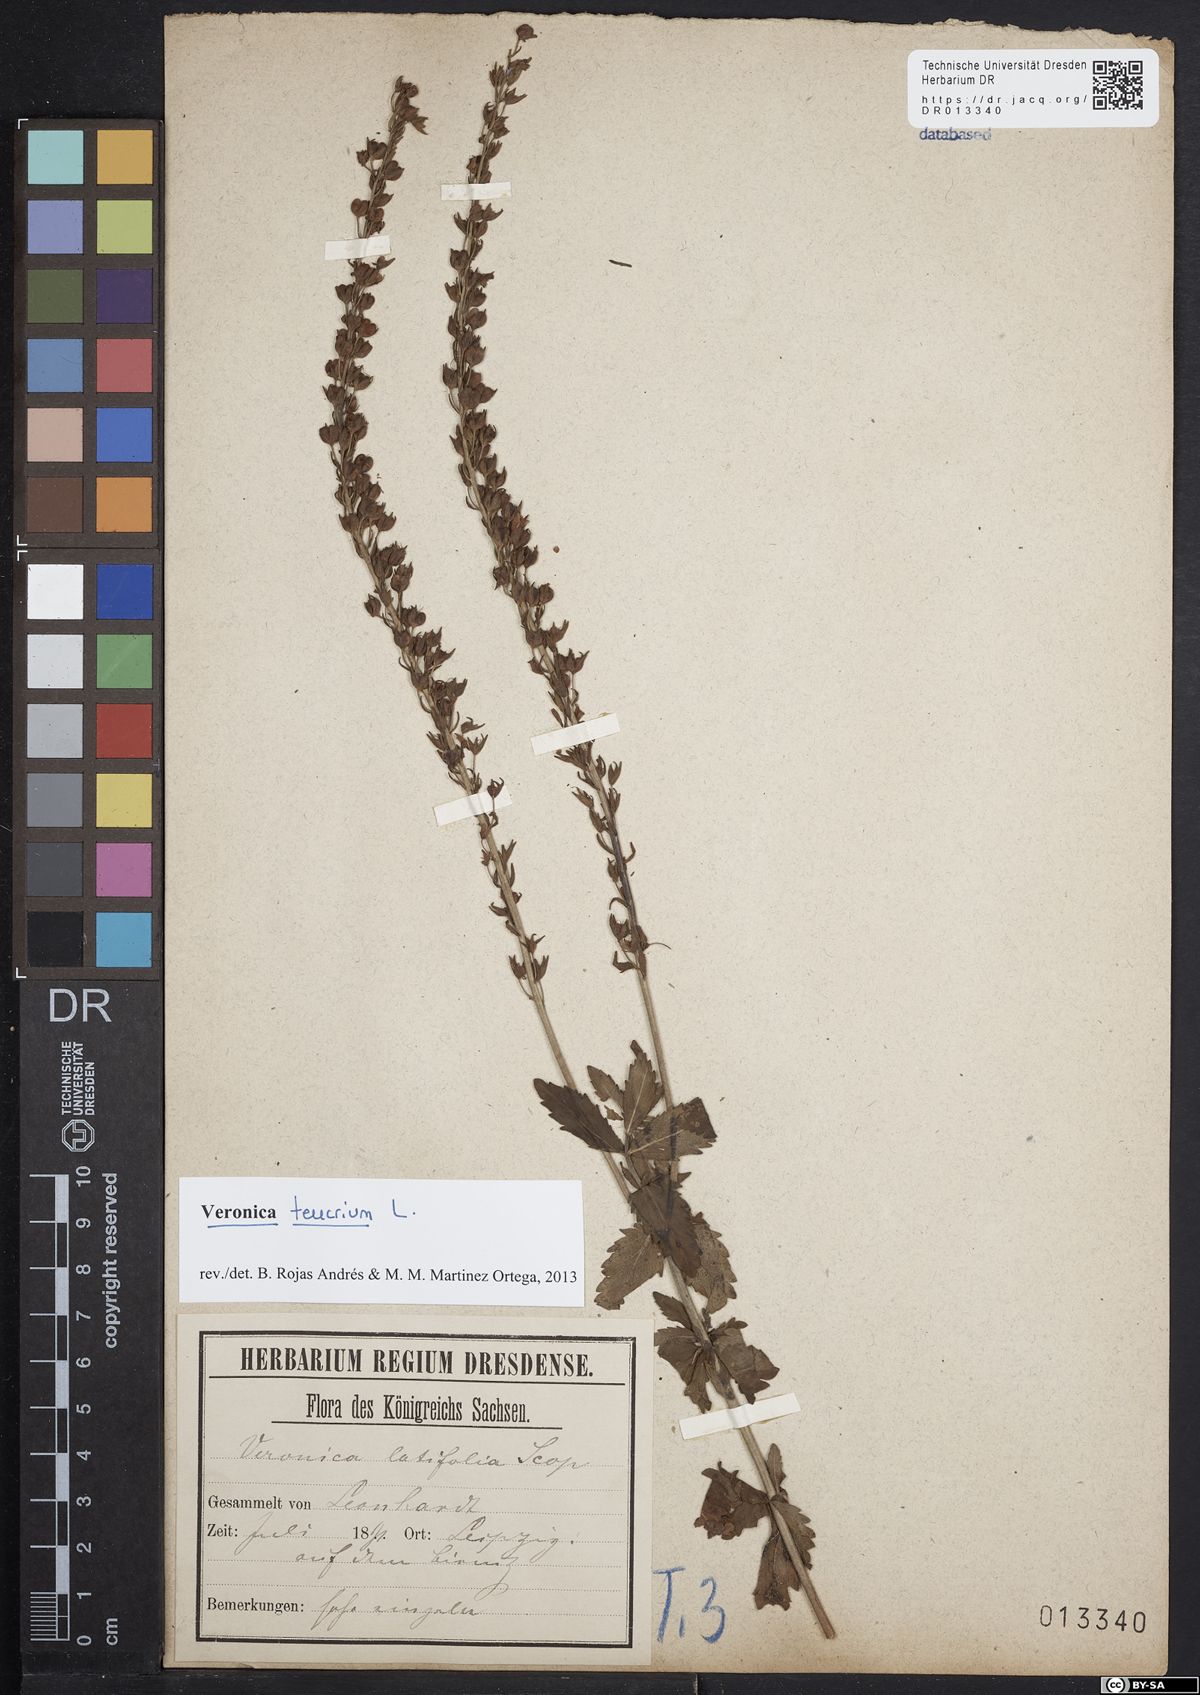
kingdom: Plantae
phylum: Tracheophyta
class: Magnoliopsida
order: Lamiales
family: Plantaginaceae
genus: Veronica
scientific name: Veronica teucrium
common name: Large speedwell
